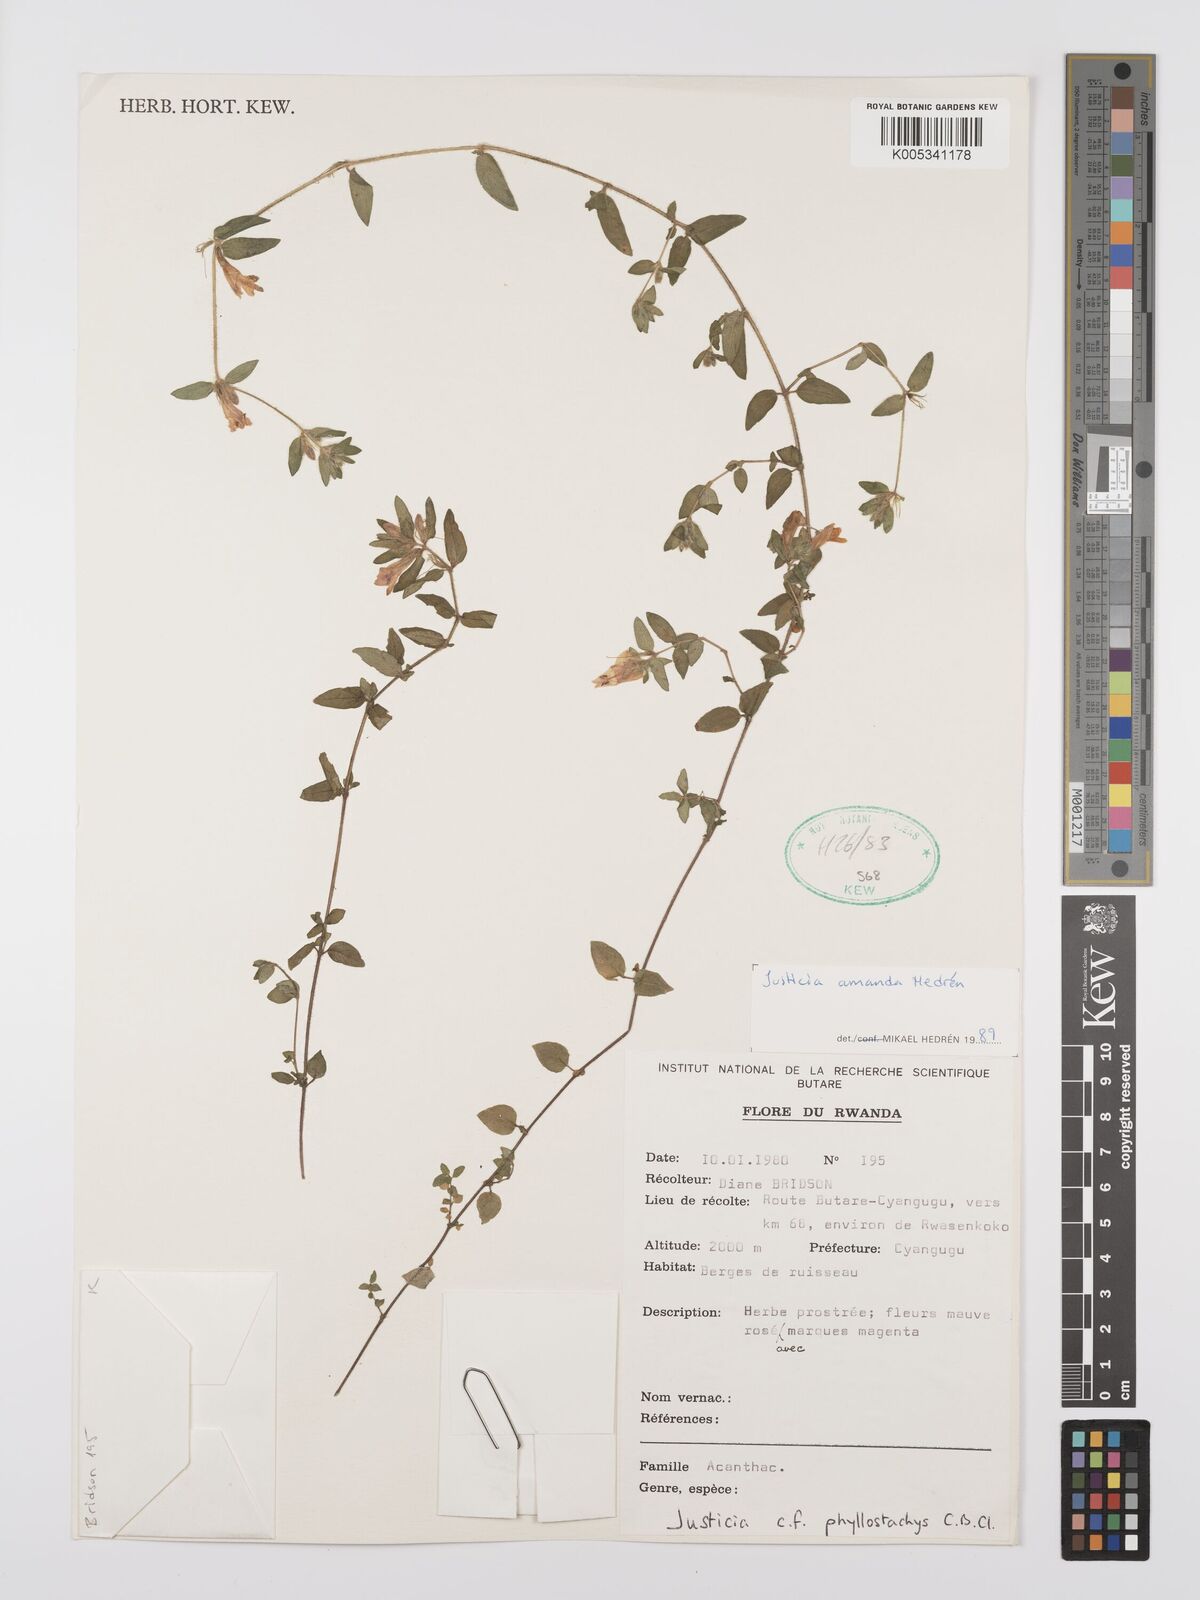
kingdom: Plantae
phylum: Tracheophyta
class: Magnoliopsida
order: Lamiales
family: Acanthaceae
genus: Justicia
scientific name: Justicia amanda
